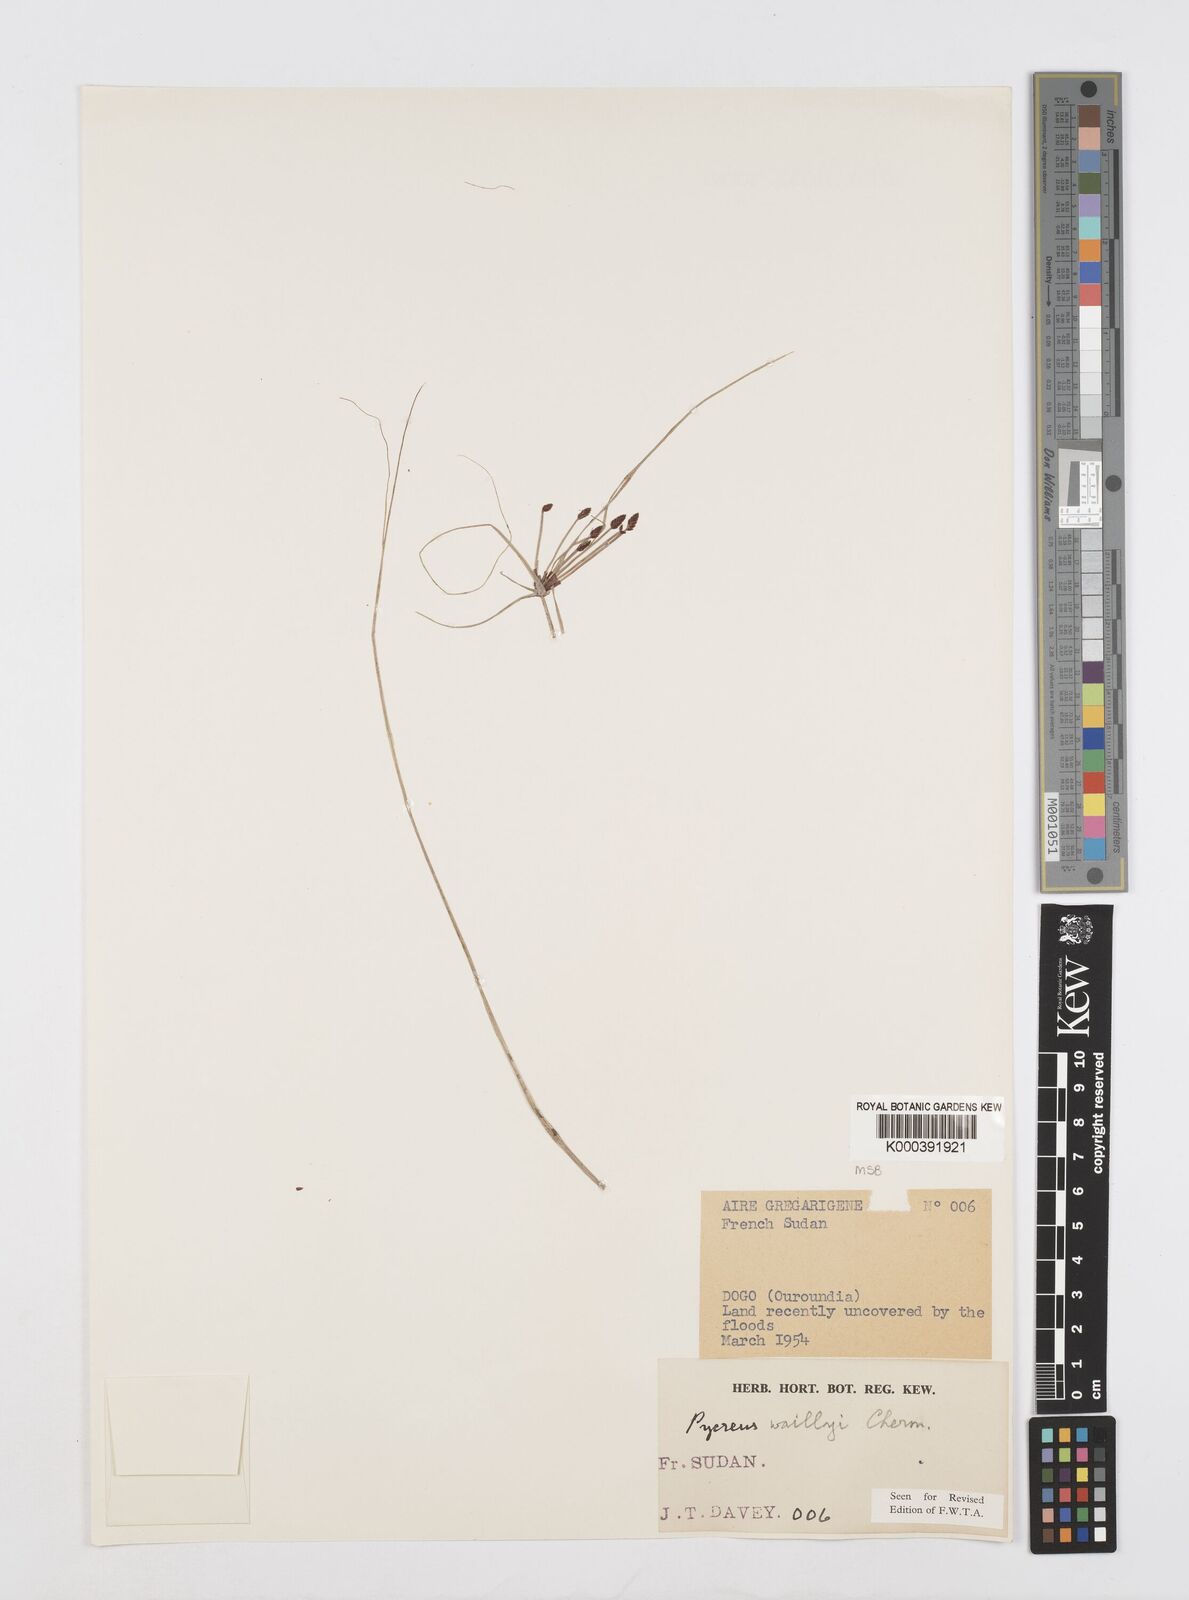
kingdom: Plantae
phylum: Tracheophyta
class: Liliopsida
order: Poales
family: Cyperaceae
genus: Cyperus
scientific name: Cyperus waillyi
